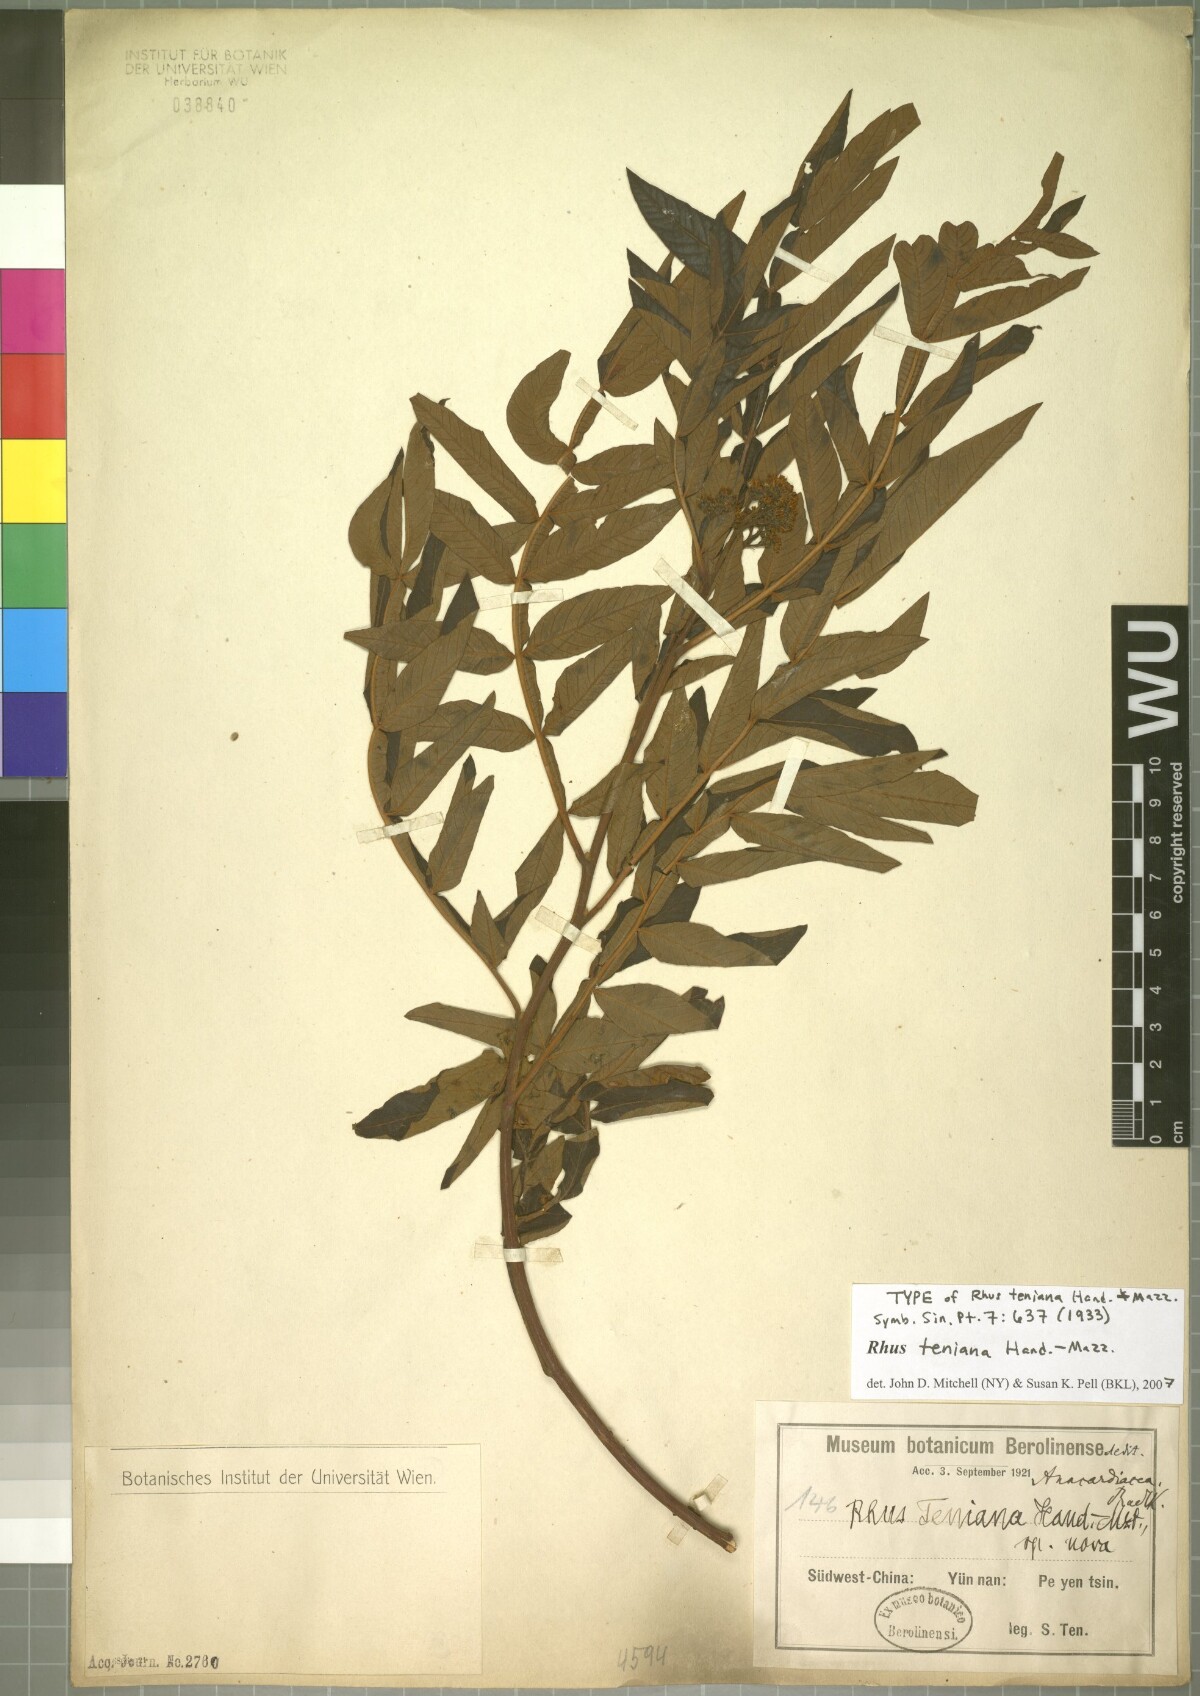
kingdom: Plantae
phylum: Tracheophyta
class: Magnoliopsida
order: Sapindales
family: Anacardiaceae
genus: Rhus
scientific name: Rhus teniana
